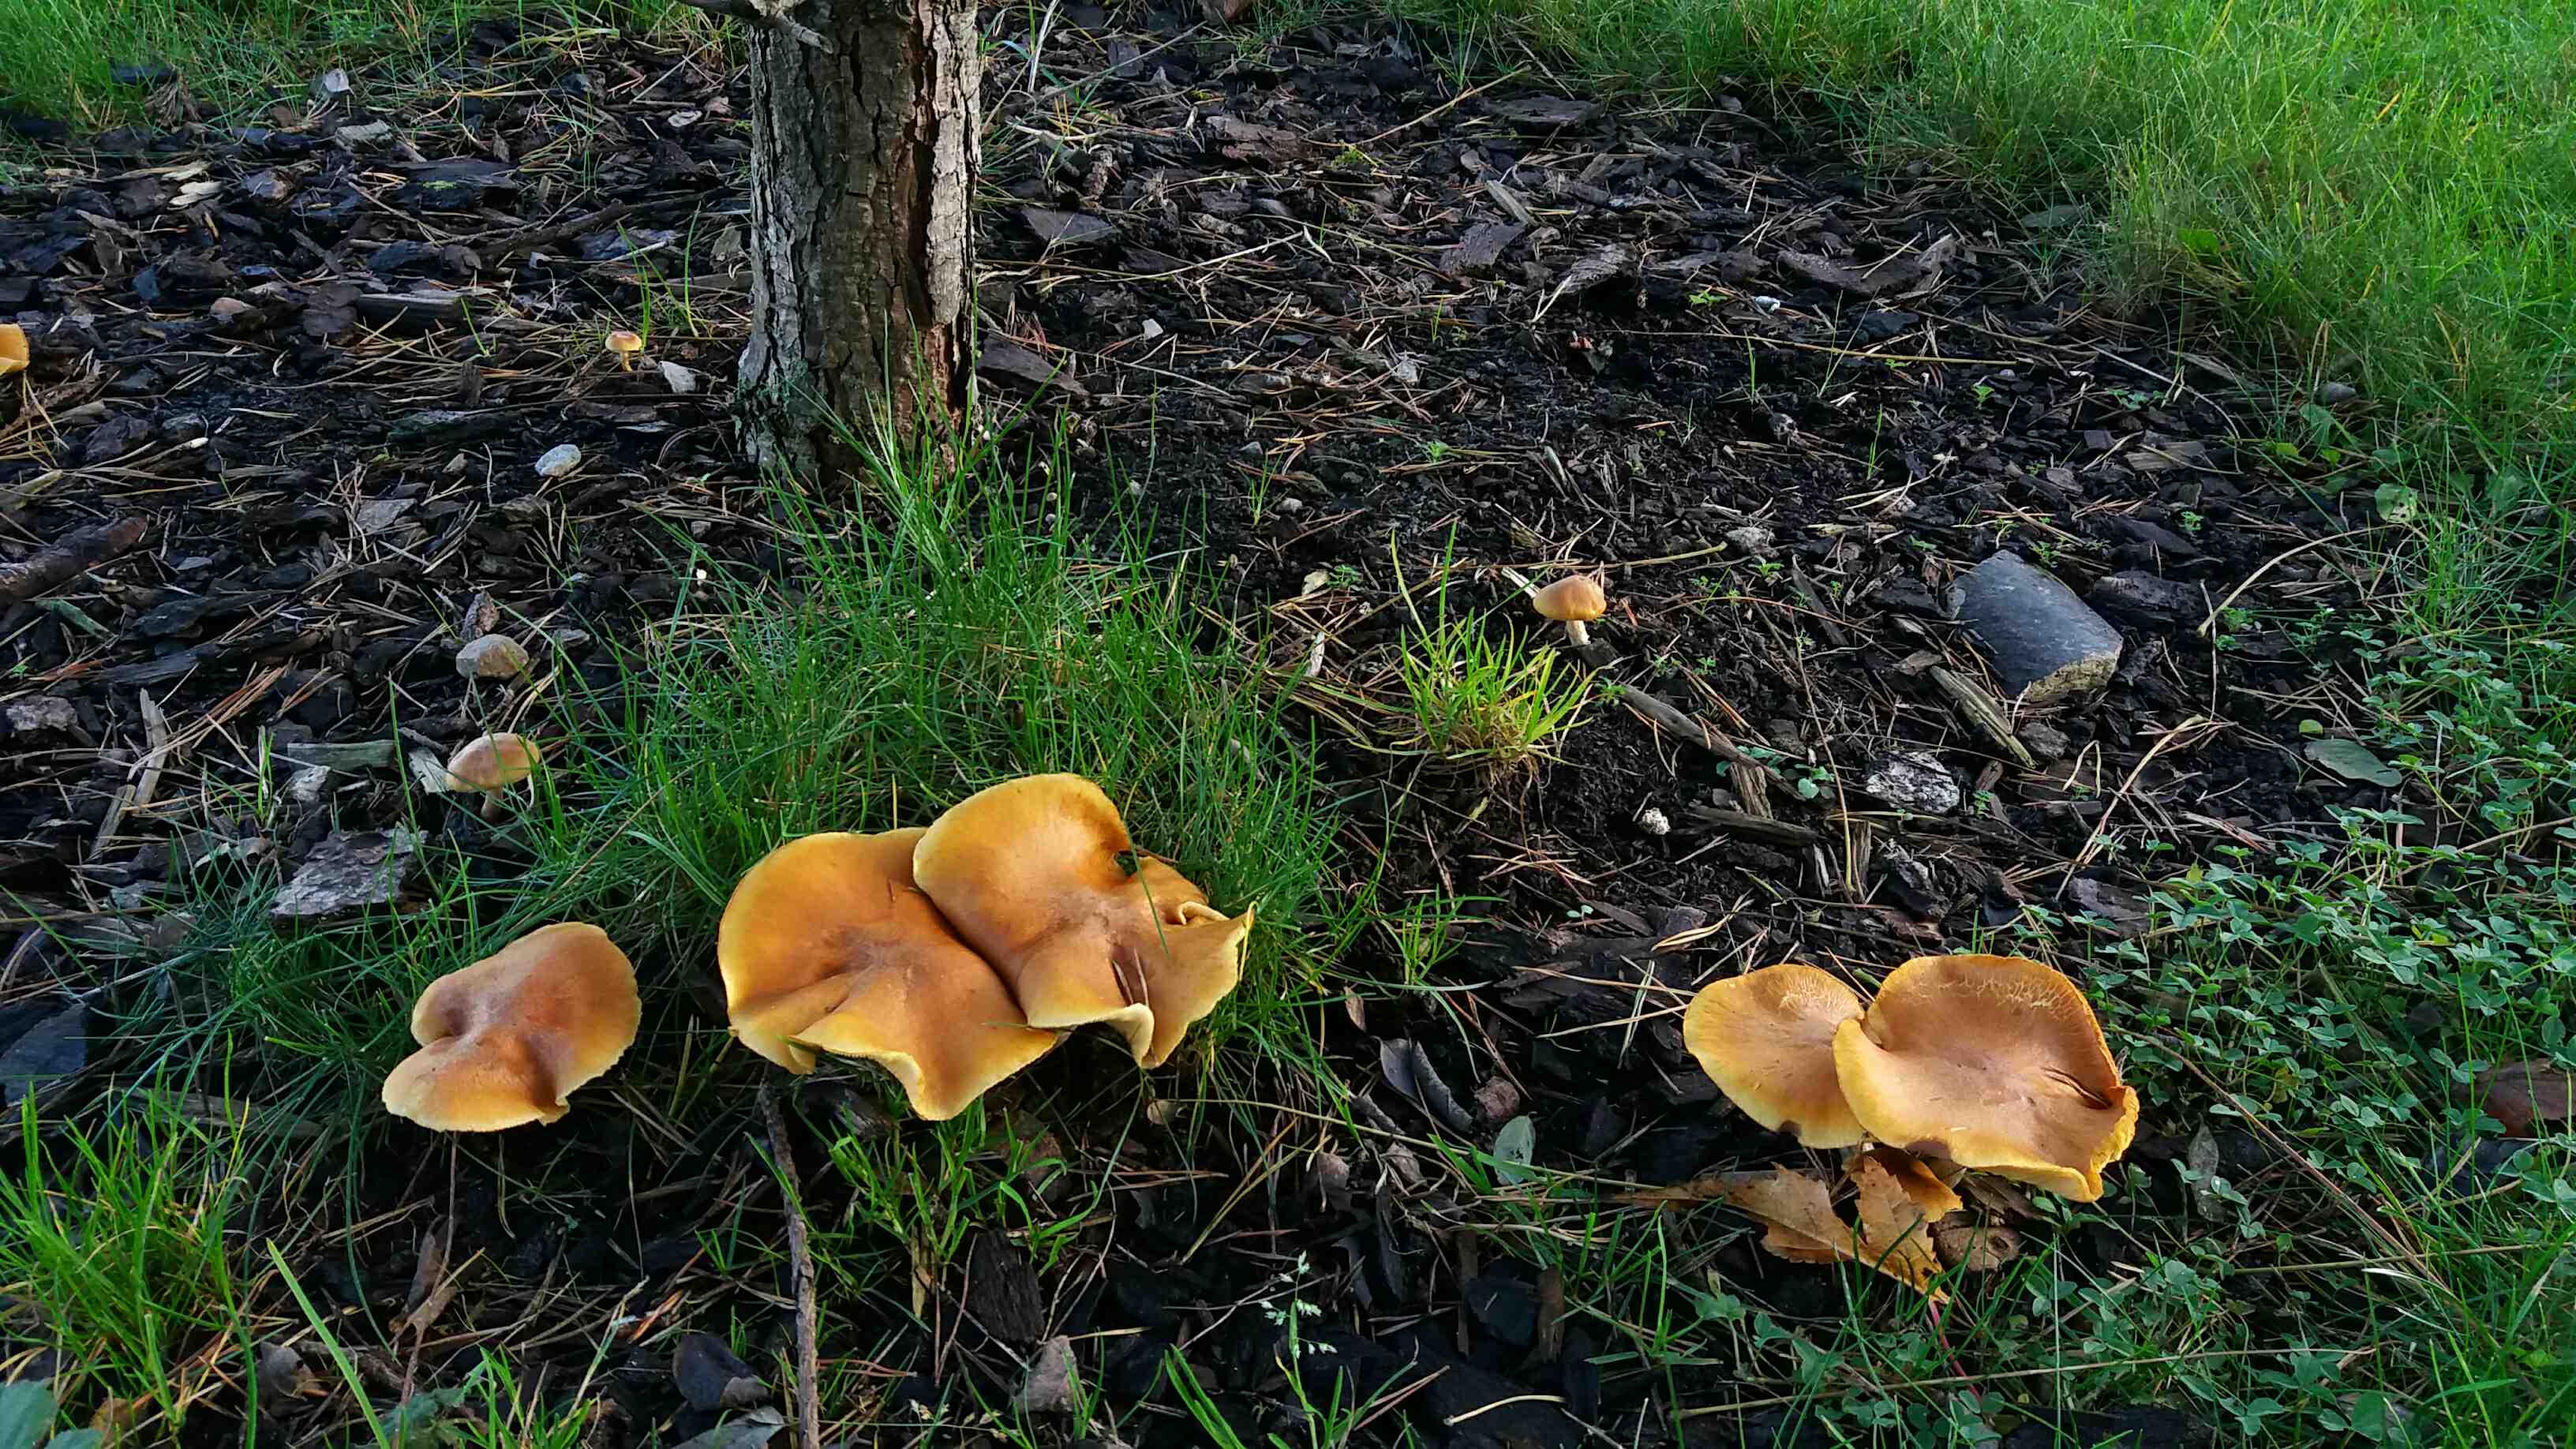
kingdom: Fungi
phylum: Basidiomycota
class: Agaricomycetes
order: Agaricales
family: Hymenogastraceae
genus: Gymnopilus
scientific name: Gymnopilus penetrans
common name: plettet flammehat
